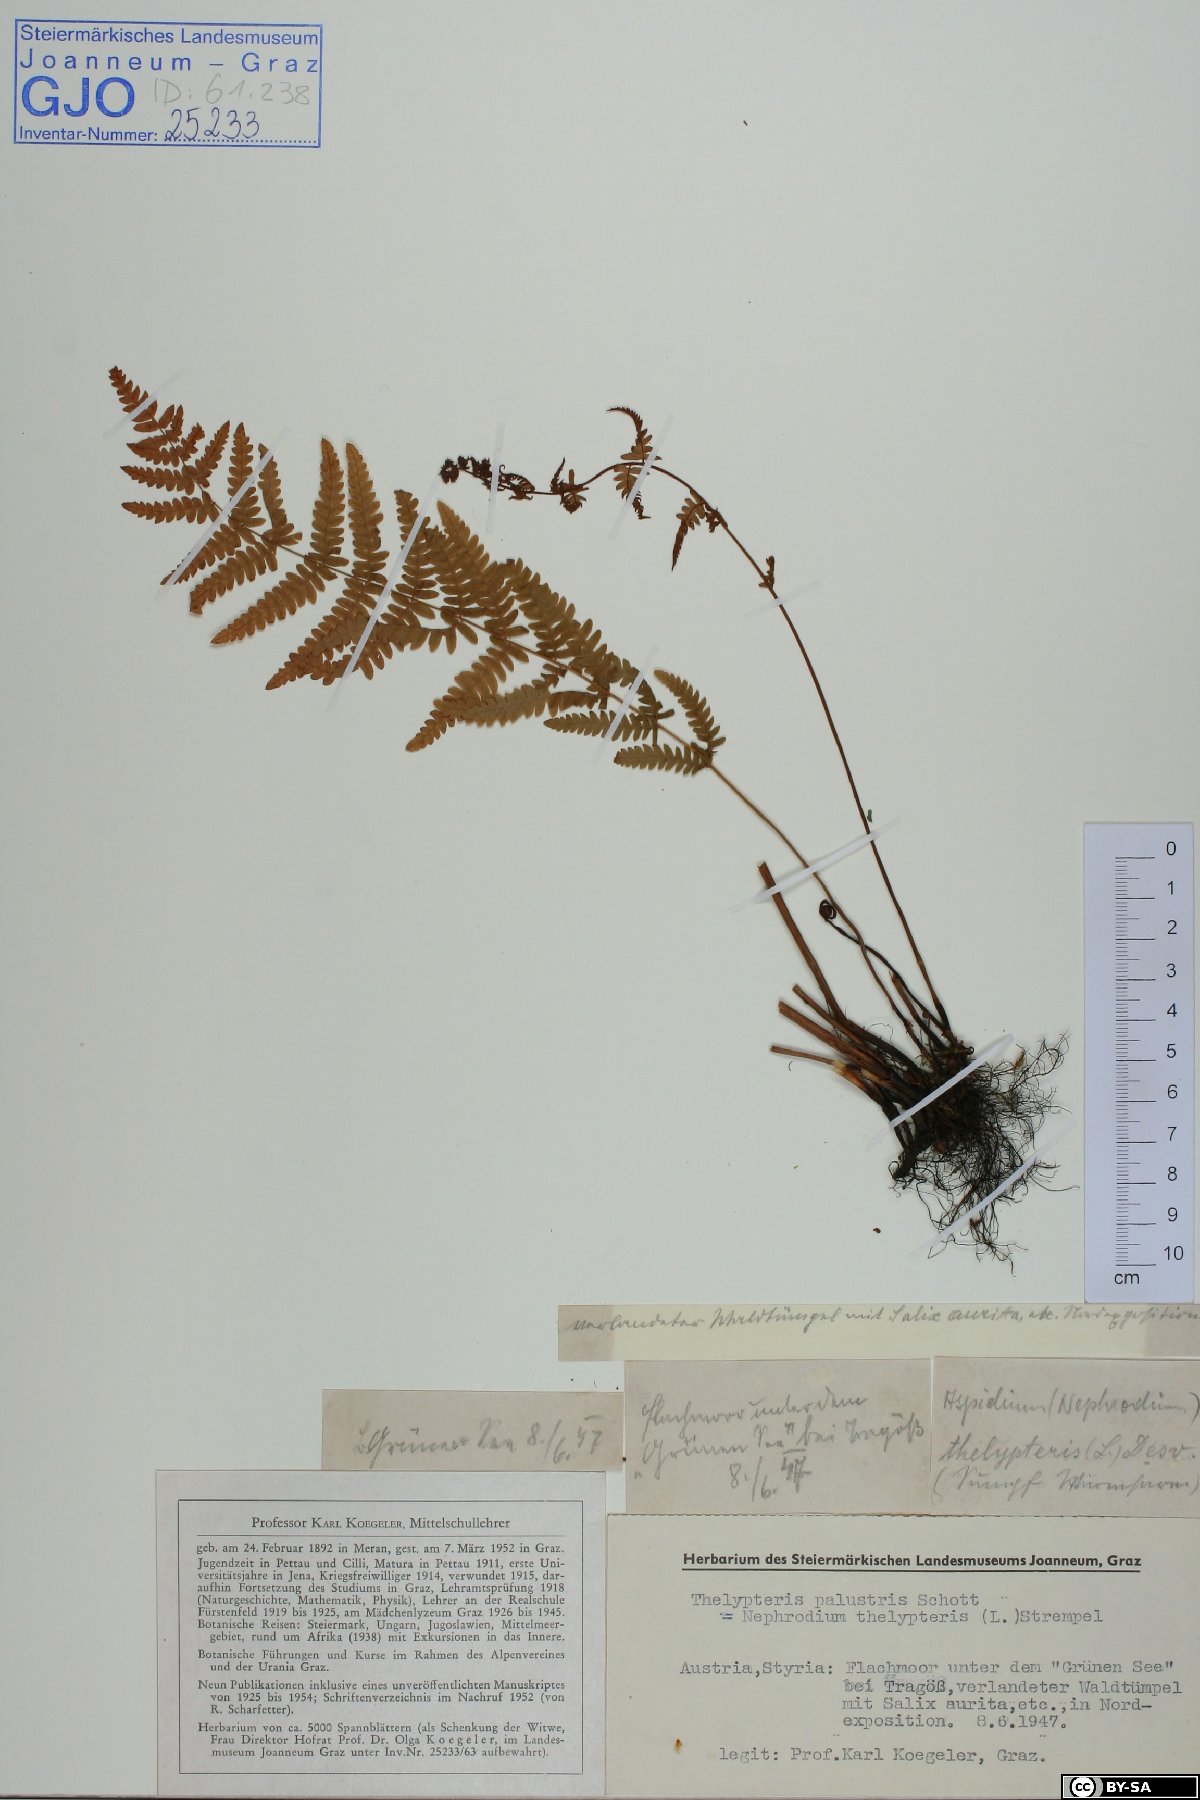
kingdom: Plantae
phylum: Tracheophyta
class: Polypodiopsida
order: Polypodiales
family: Thelypteridaceae
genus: Thelypteris
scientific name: Thelypteris palustris
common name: Marsh fern
